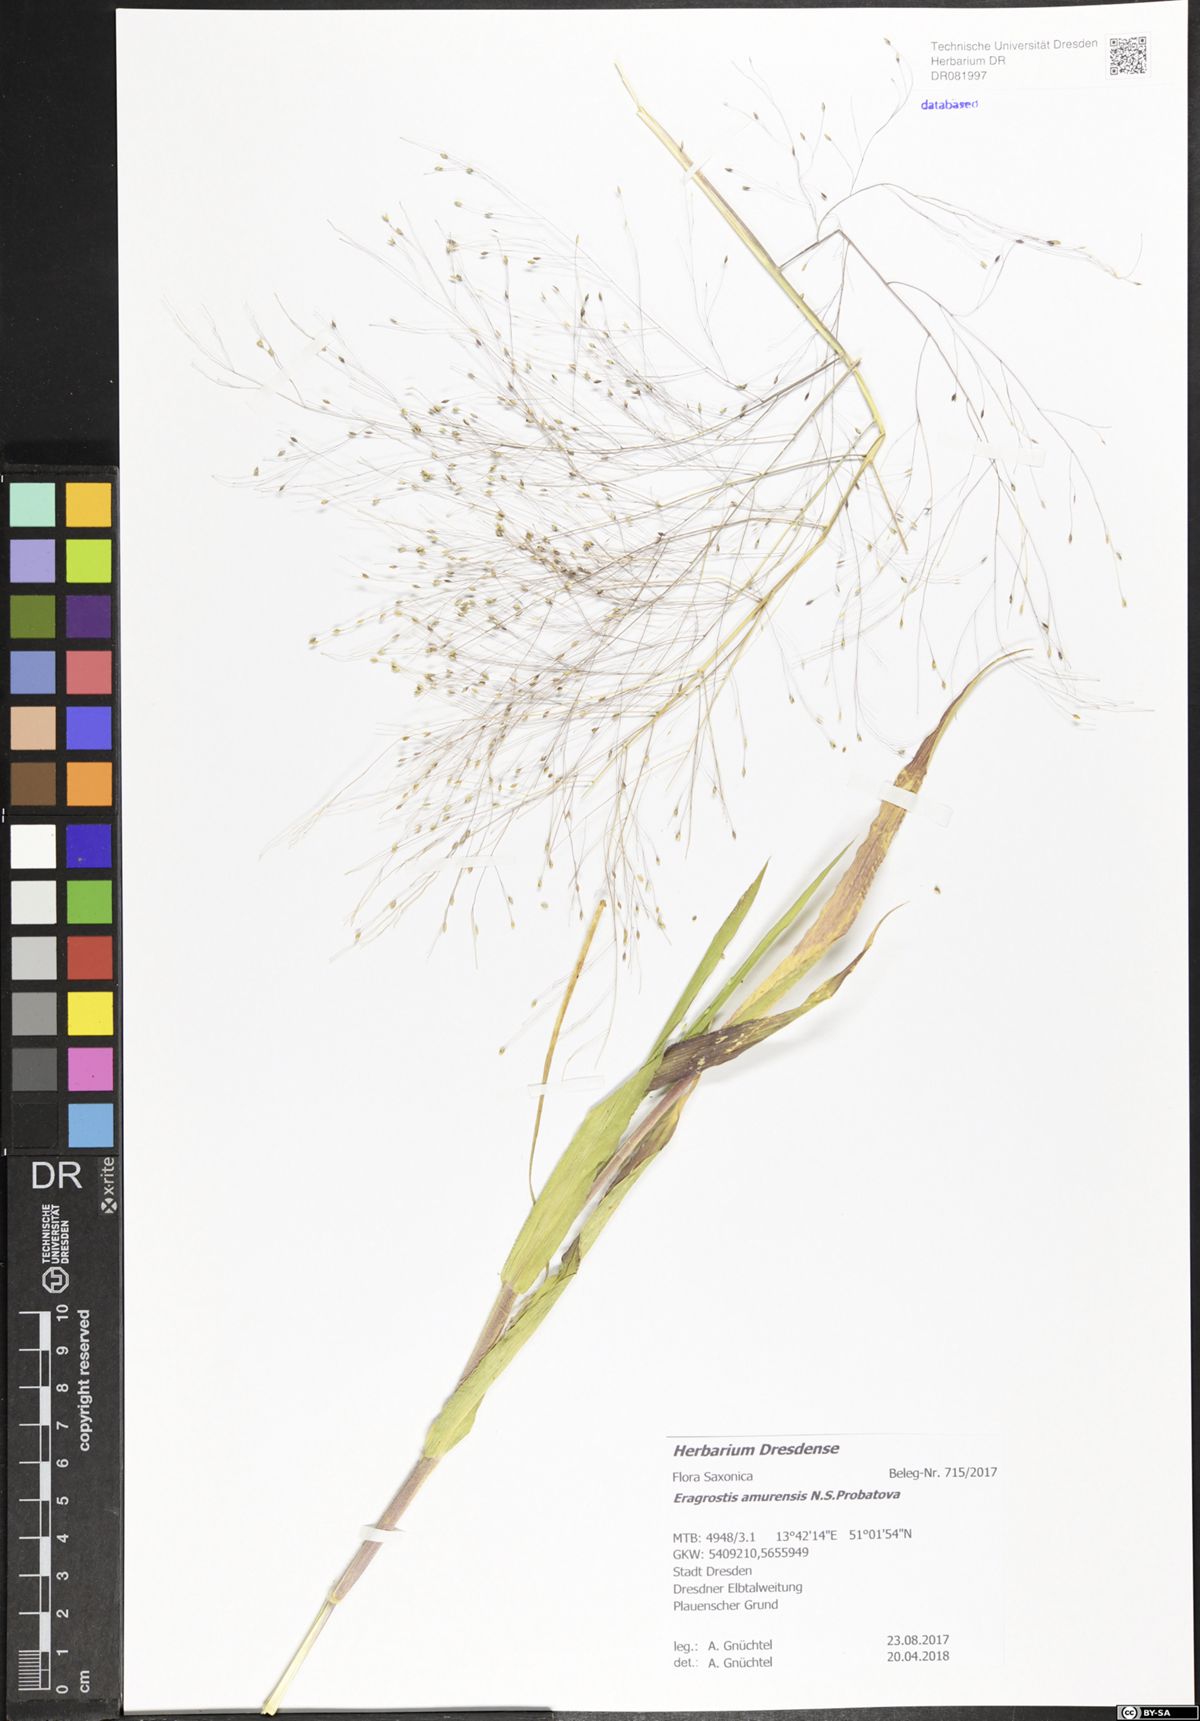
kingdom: Plantae
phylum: Tracheophyta
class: Liliopsida
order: Poales
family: Poaceae
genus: Eragrostis
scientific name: Eragrostis amurensis
